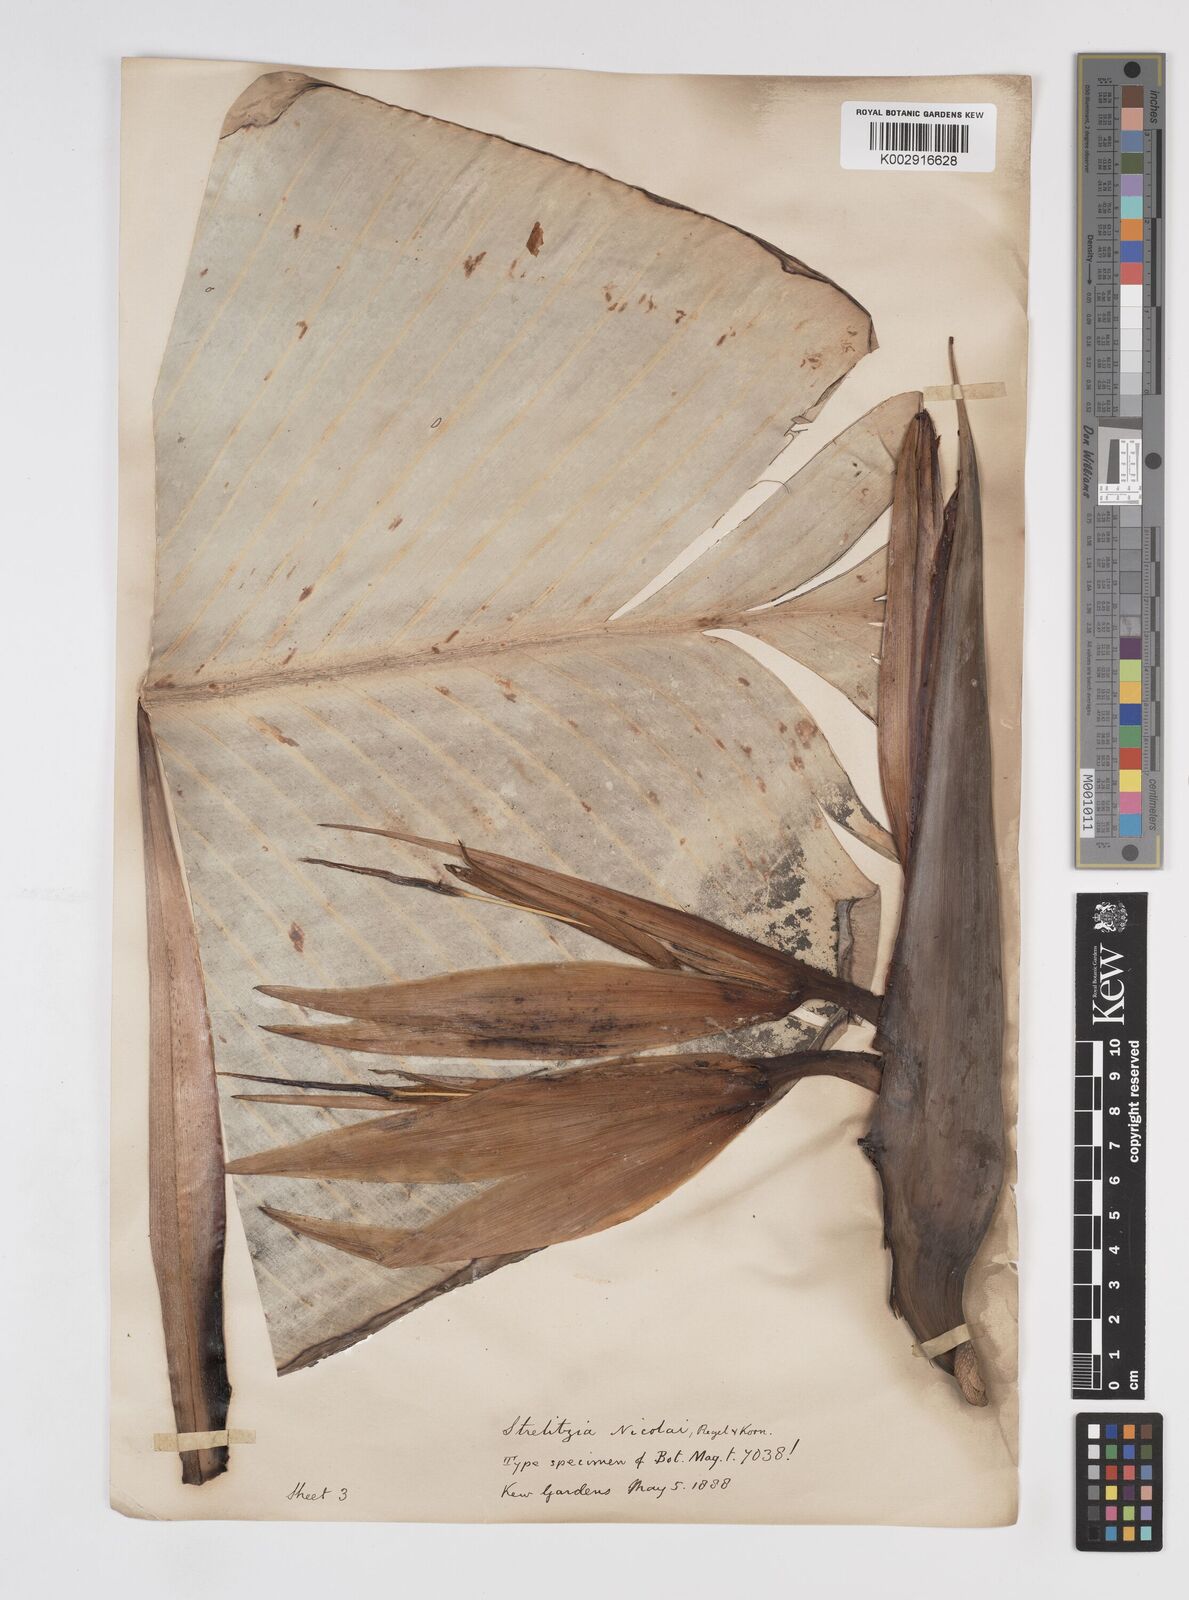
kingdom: Plantae
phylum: Tracheophyta
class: Liliopsida
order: Zingiberales
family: Strelitziaceae
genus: Strelitzia
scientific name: Strelitzia nicolai
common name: Bird-of-paradise tree
